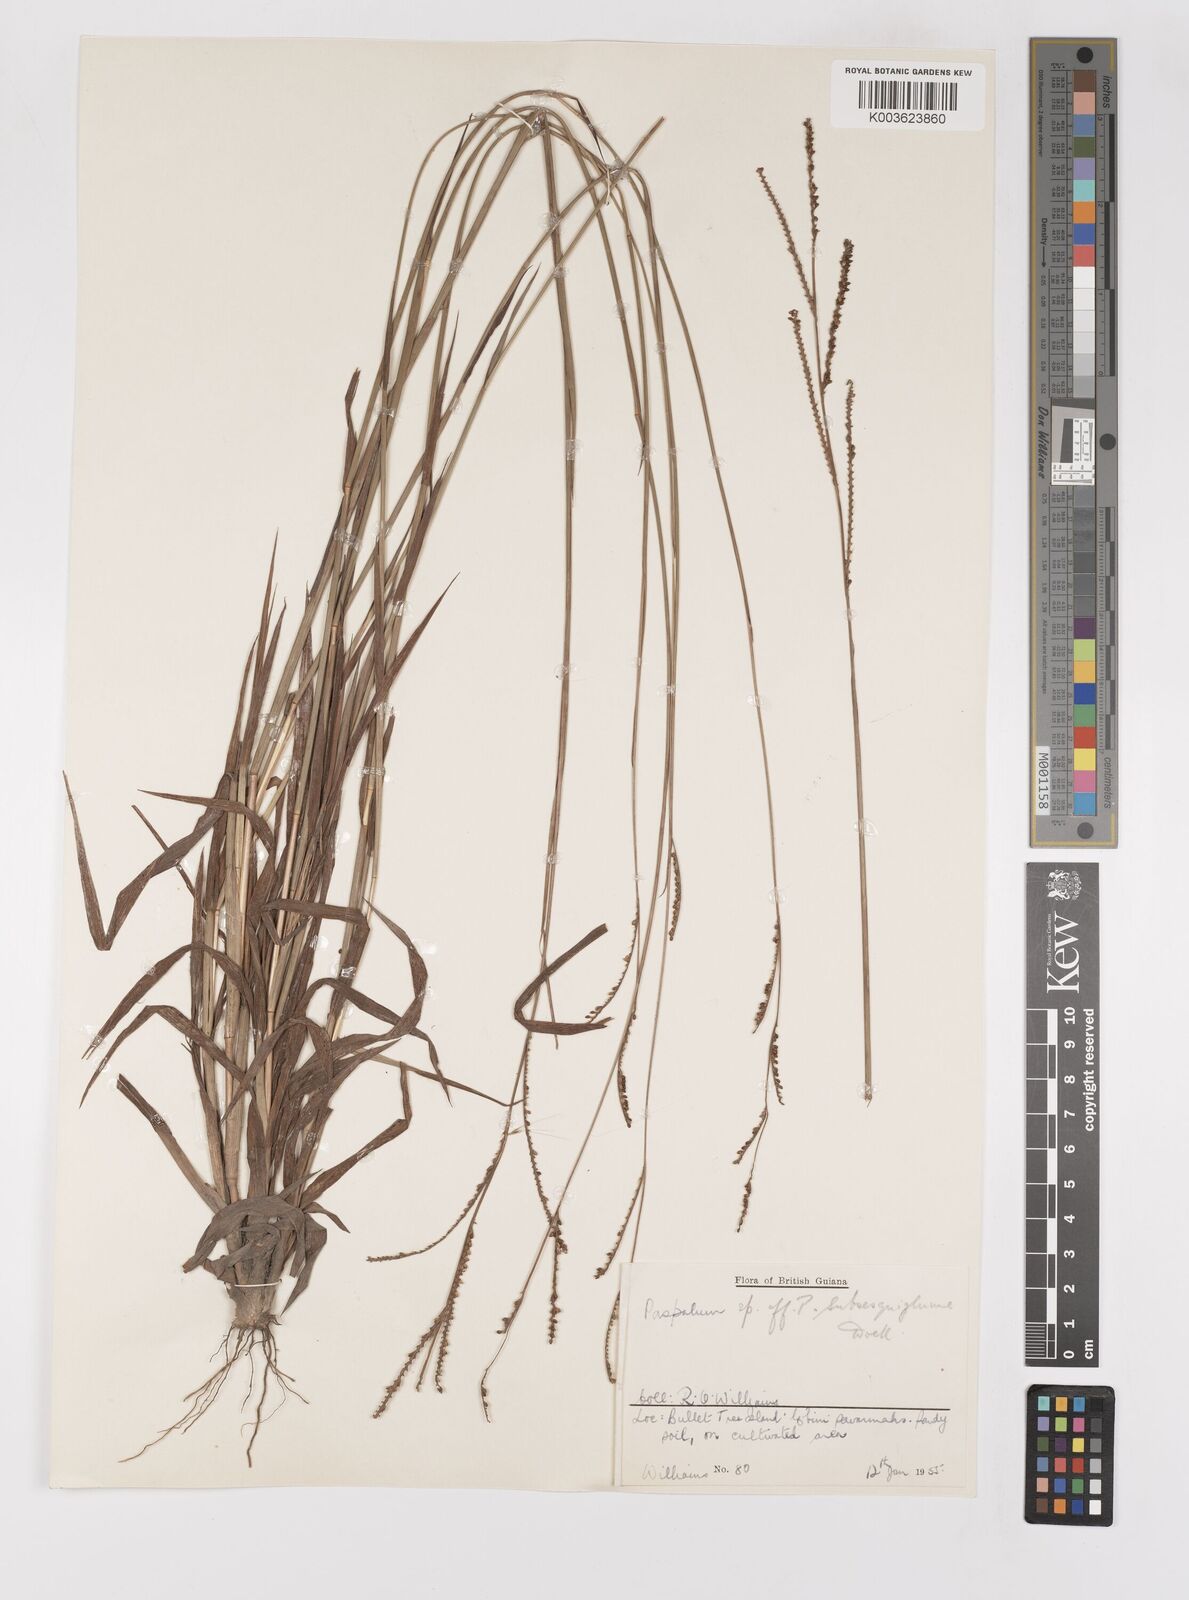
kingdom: Plantae
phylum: Tracheophyta
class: Liliopsida
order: Poales
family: Poaceae
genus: Paspalum
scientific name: Paspalum gardnerianum
